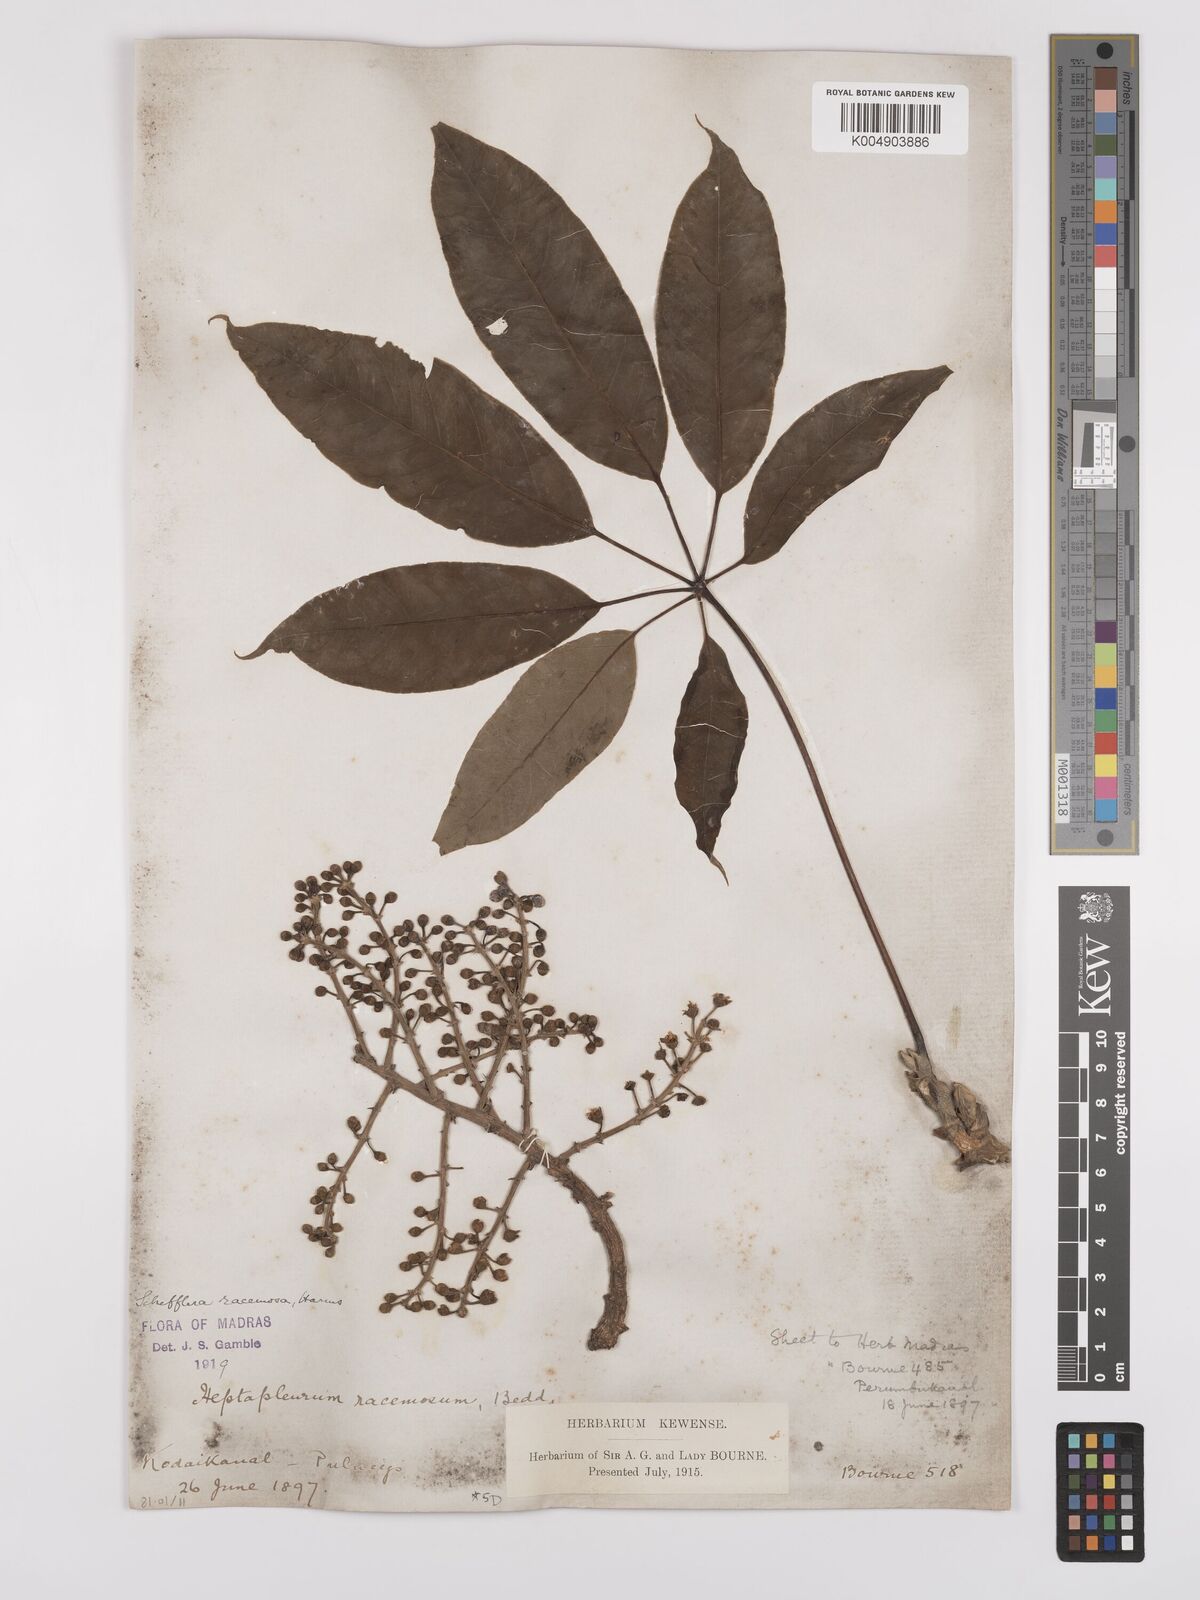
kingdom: Plantae
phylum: Tracheophyta
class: Magnoliopsida
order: Apiales
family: Araliaceae
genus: Heptapleurum
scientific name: Heptapleurum
